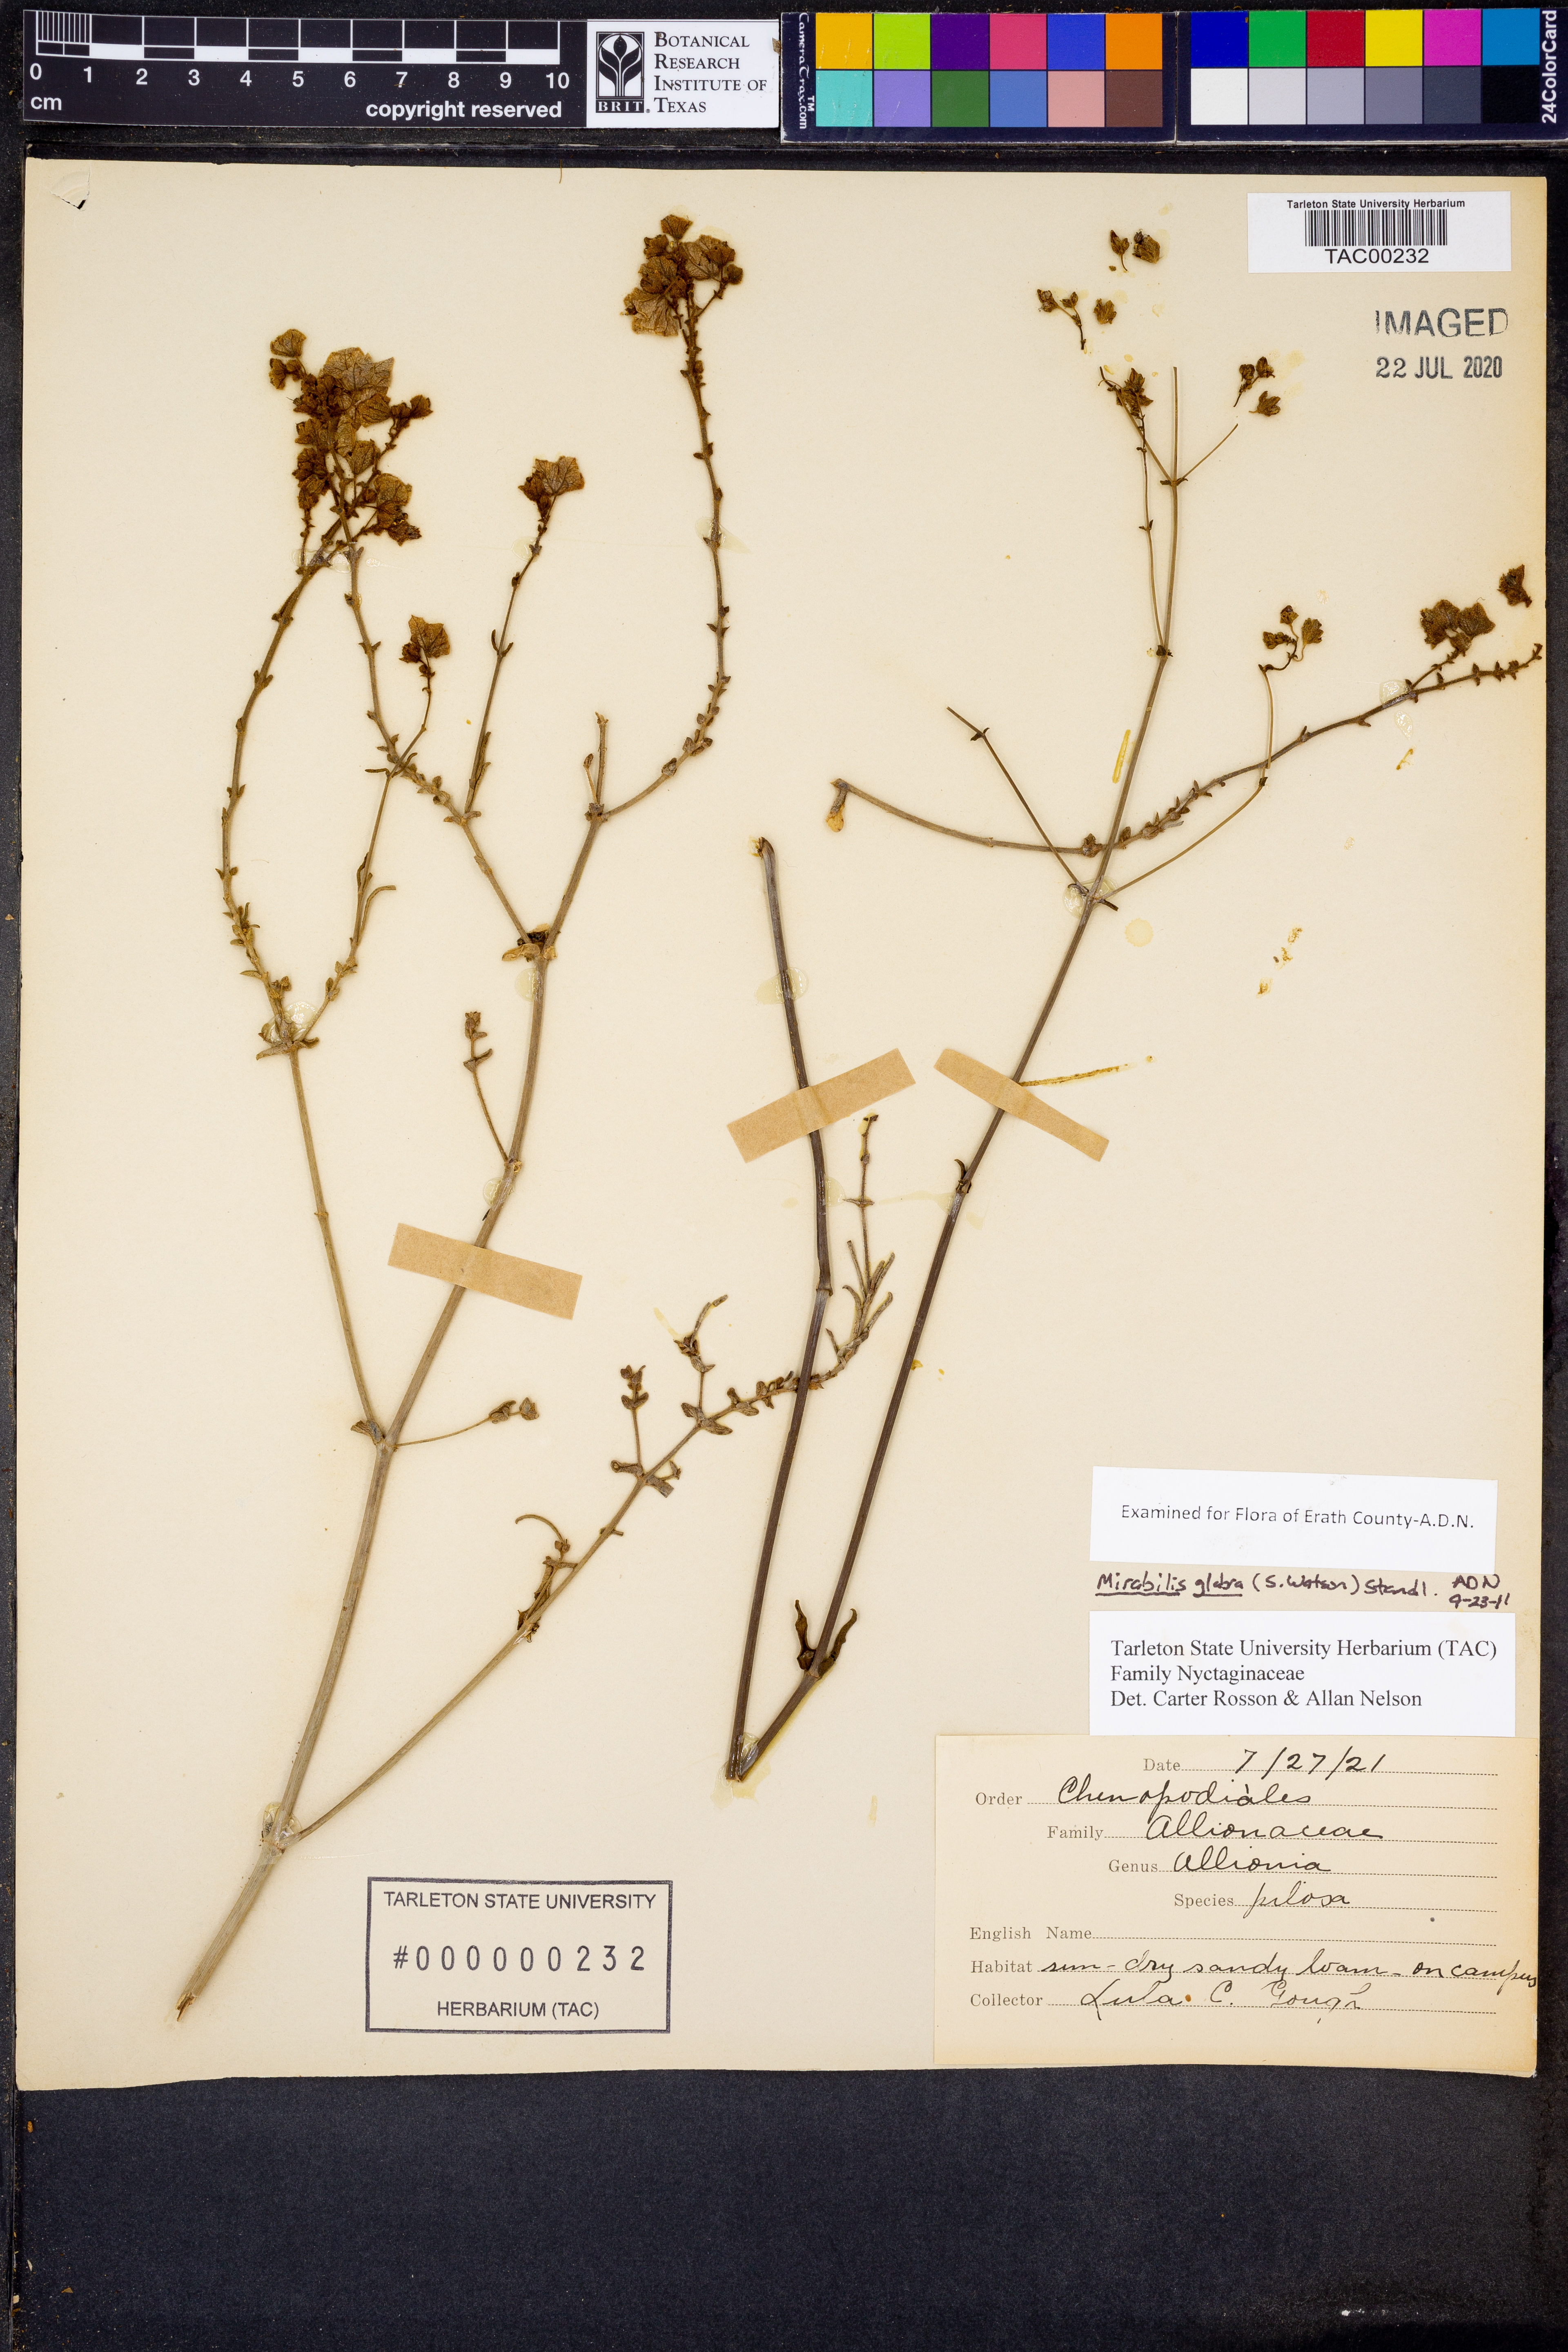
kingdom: Plantae
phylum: Tracheophyta
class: Magnoliopsida
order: Caryophyllales
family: Nyctaginaceae
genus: Mirabilis
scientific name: Mirabilis glabra
